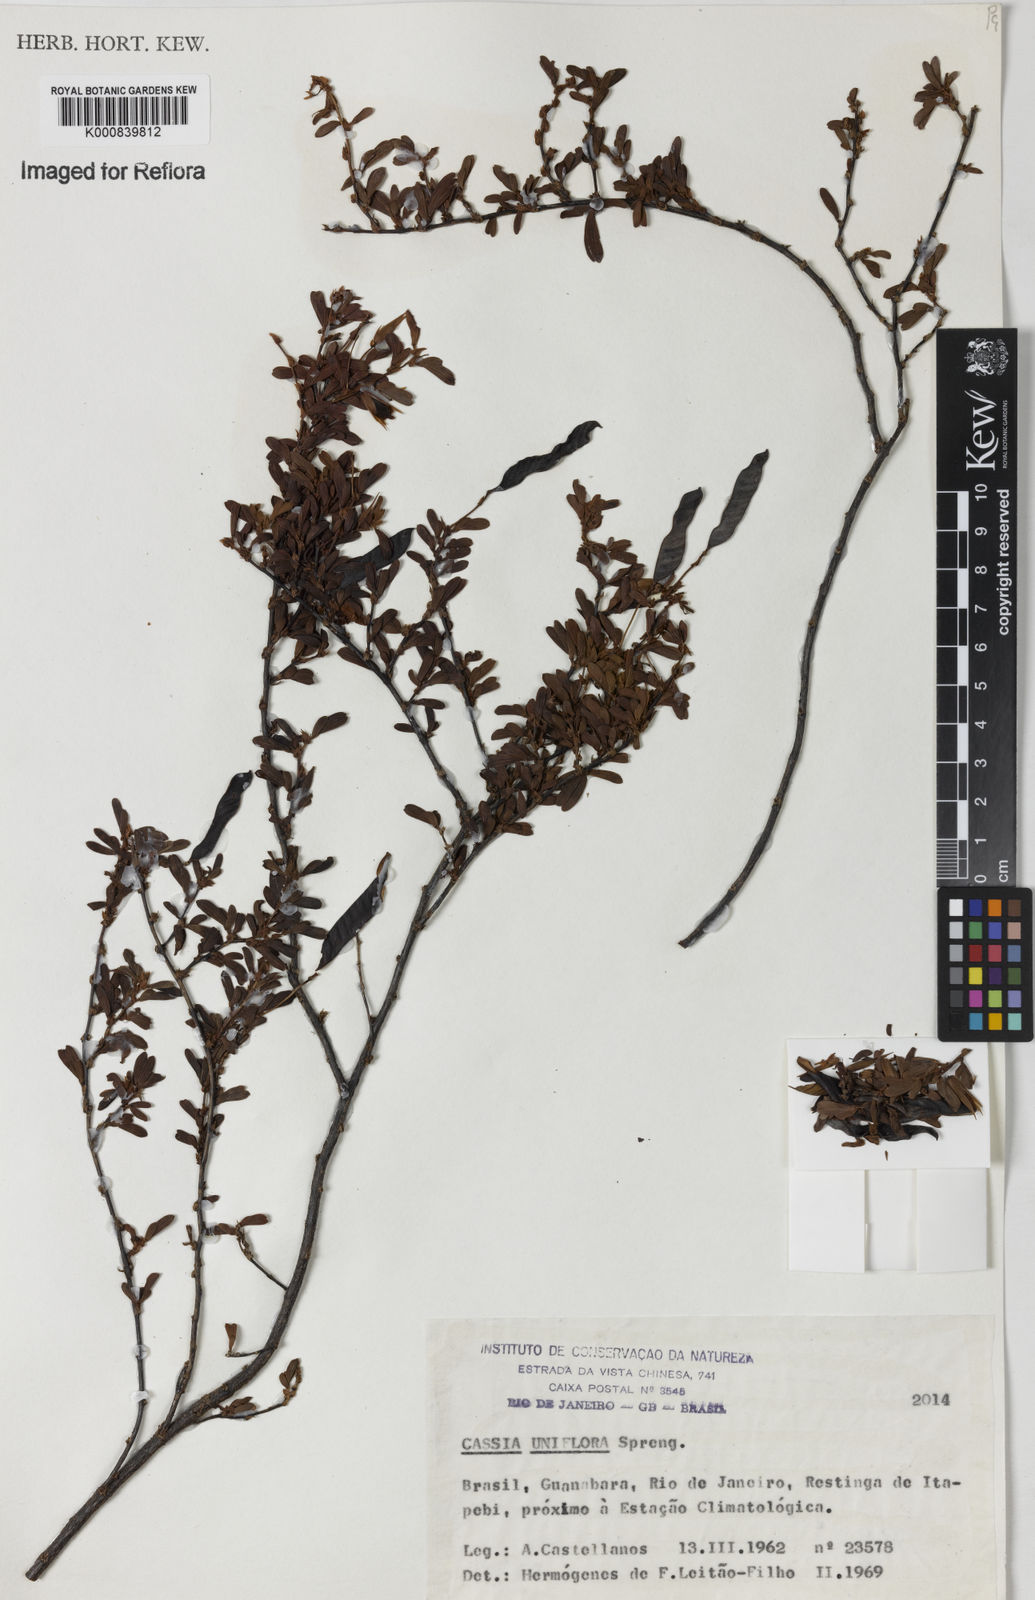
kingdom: Plantae
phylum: Tracheophyta
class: Magnoliopsida
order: Fabales
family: Fabaceae
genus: Chamaecrista
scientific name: Chamaecrista ramosa
